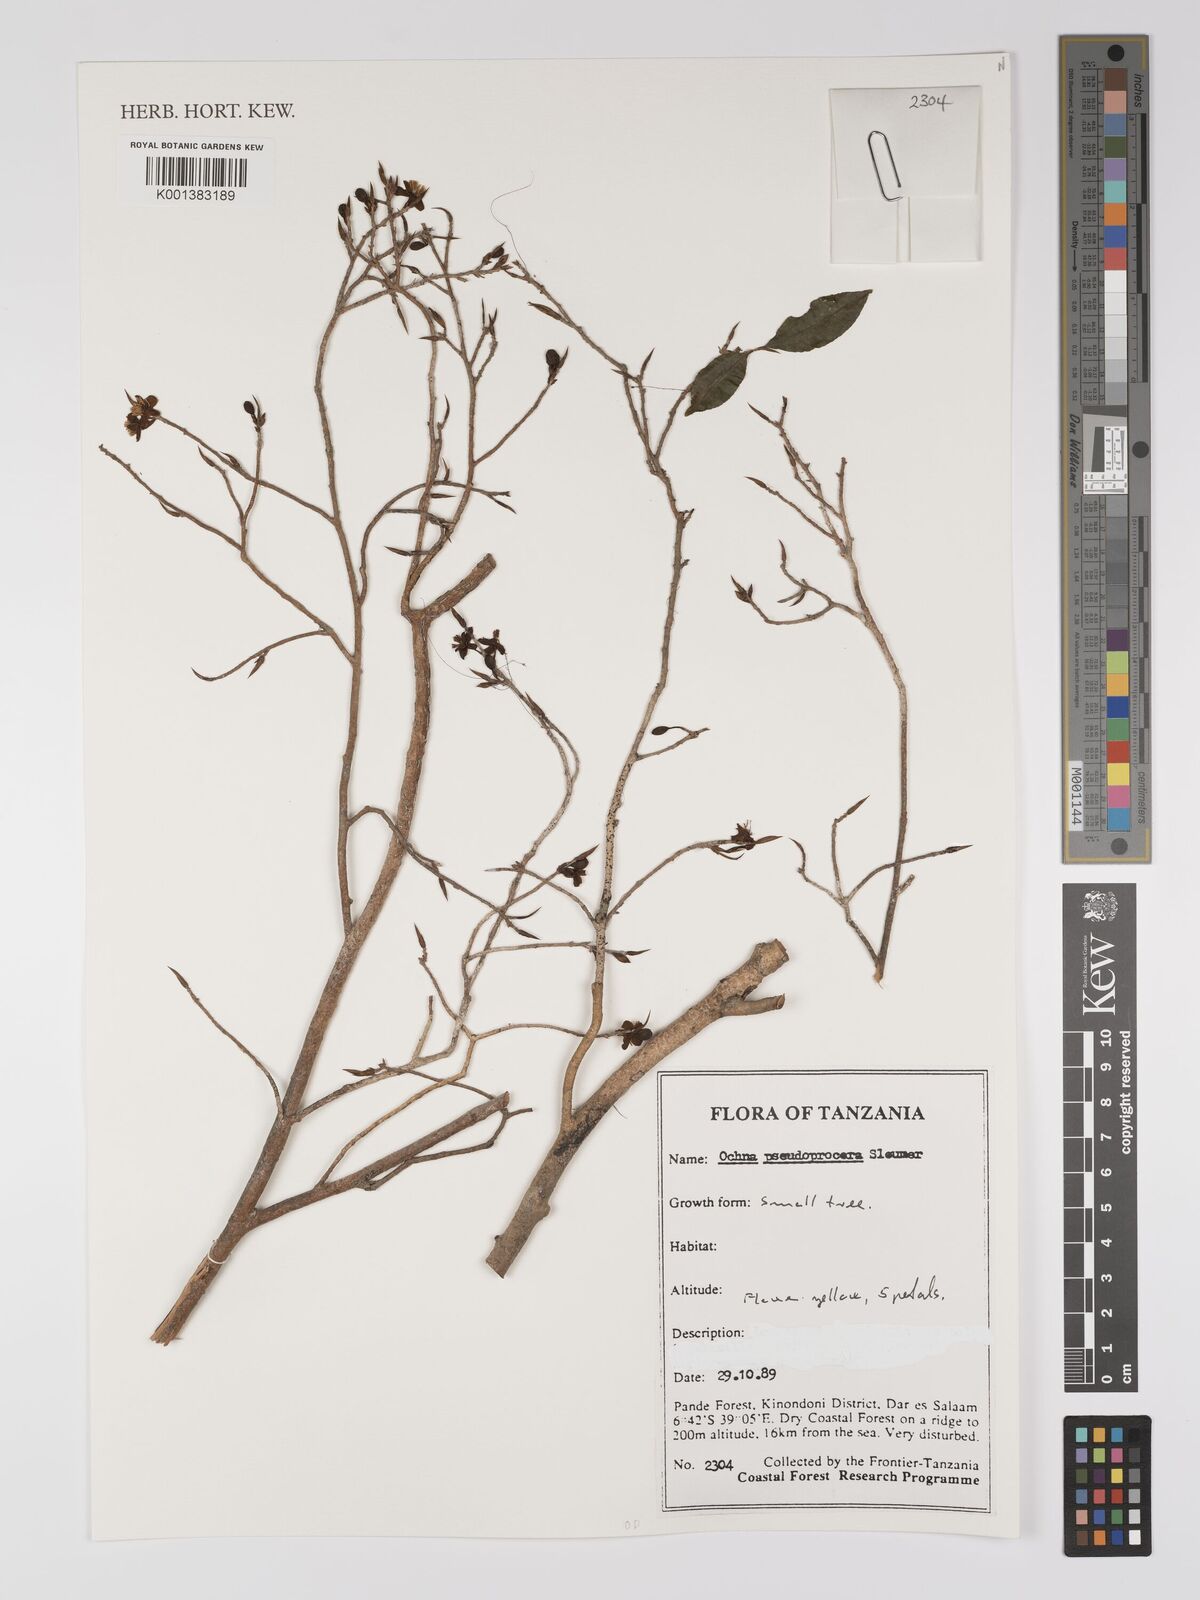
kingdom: Plantae
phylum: Tracheophyta
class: Magnoliopsida
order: Malpighiales
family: Ochnaceae
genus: Ochna
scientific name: Ochna pseudoprocera
